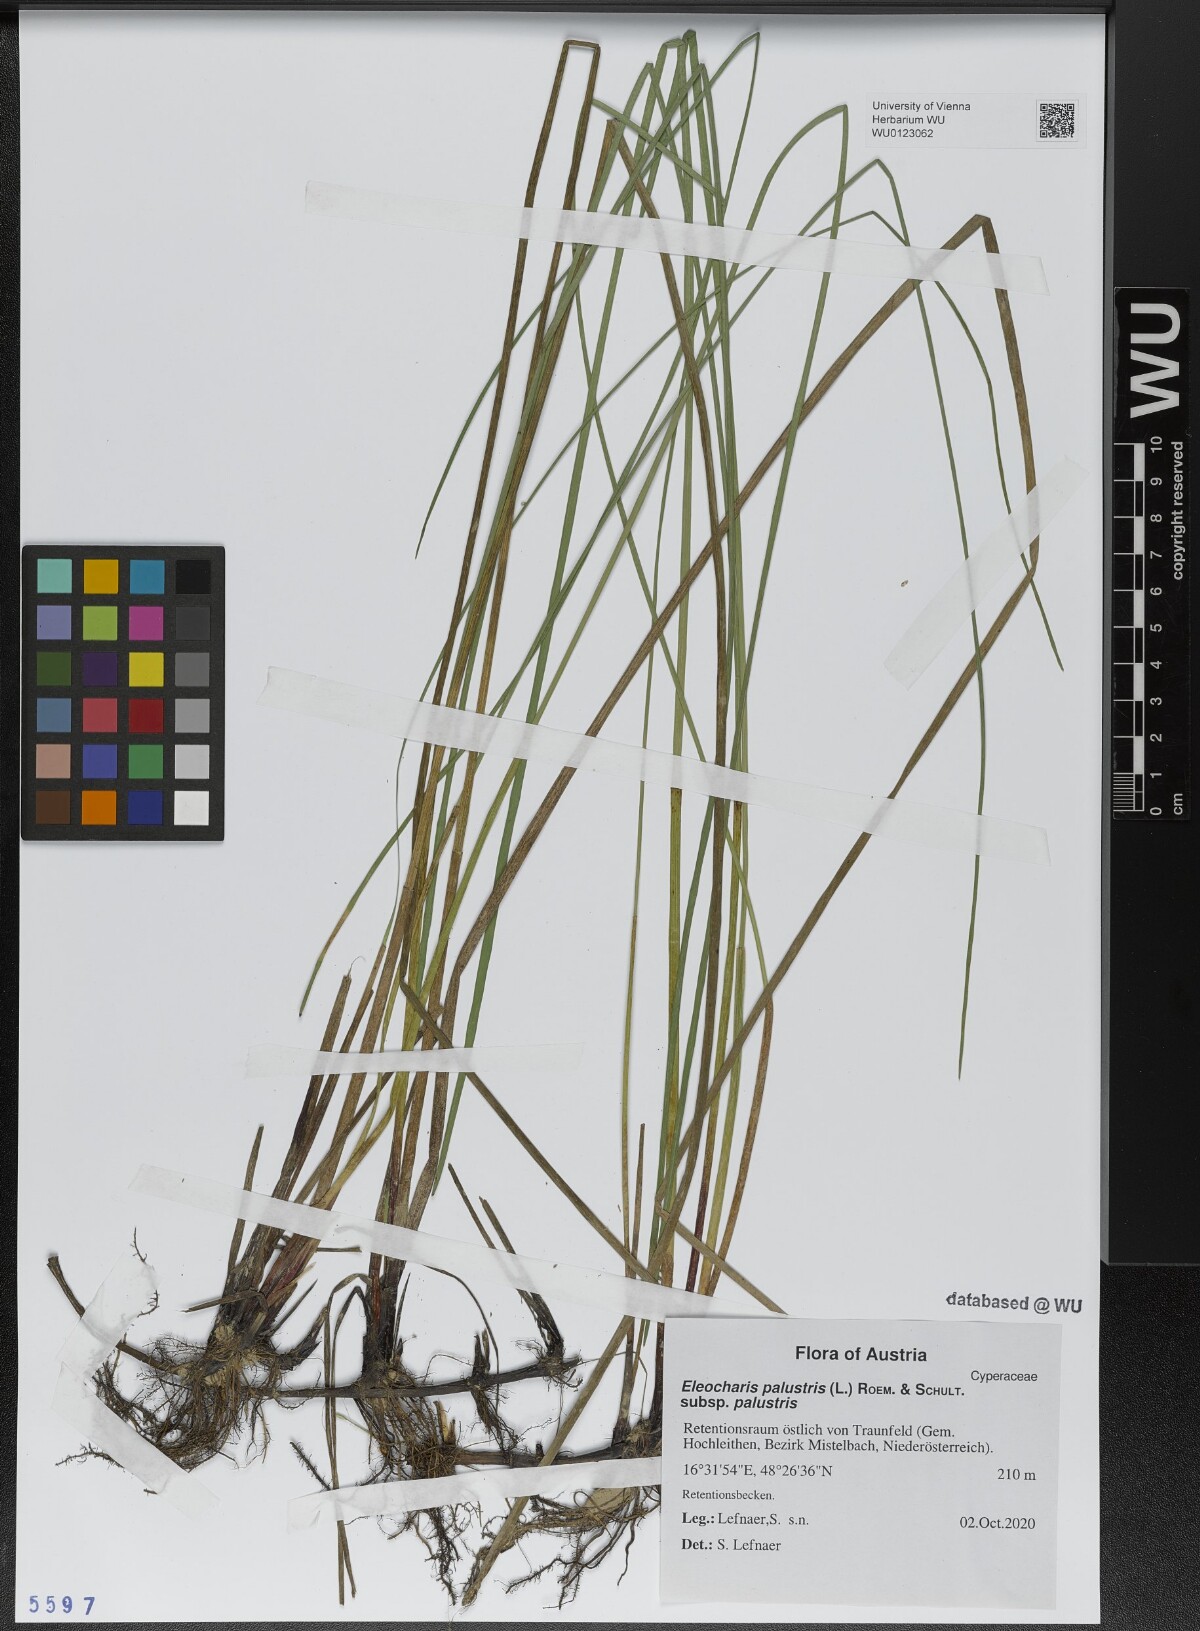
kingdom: Plantae
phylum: Tracheophyta
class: Liliopsida
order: Poales
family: Cyperaceae
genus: Eleocharis
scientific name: Eleocharis palustris
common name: Common spike-rush
